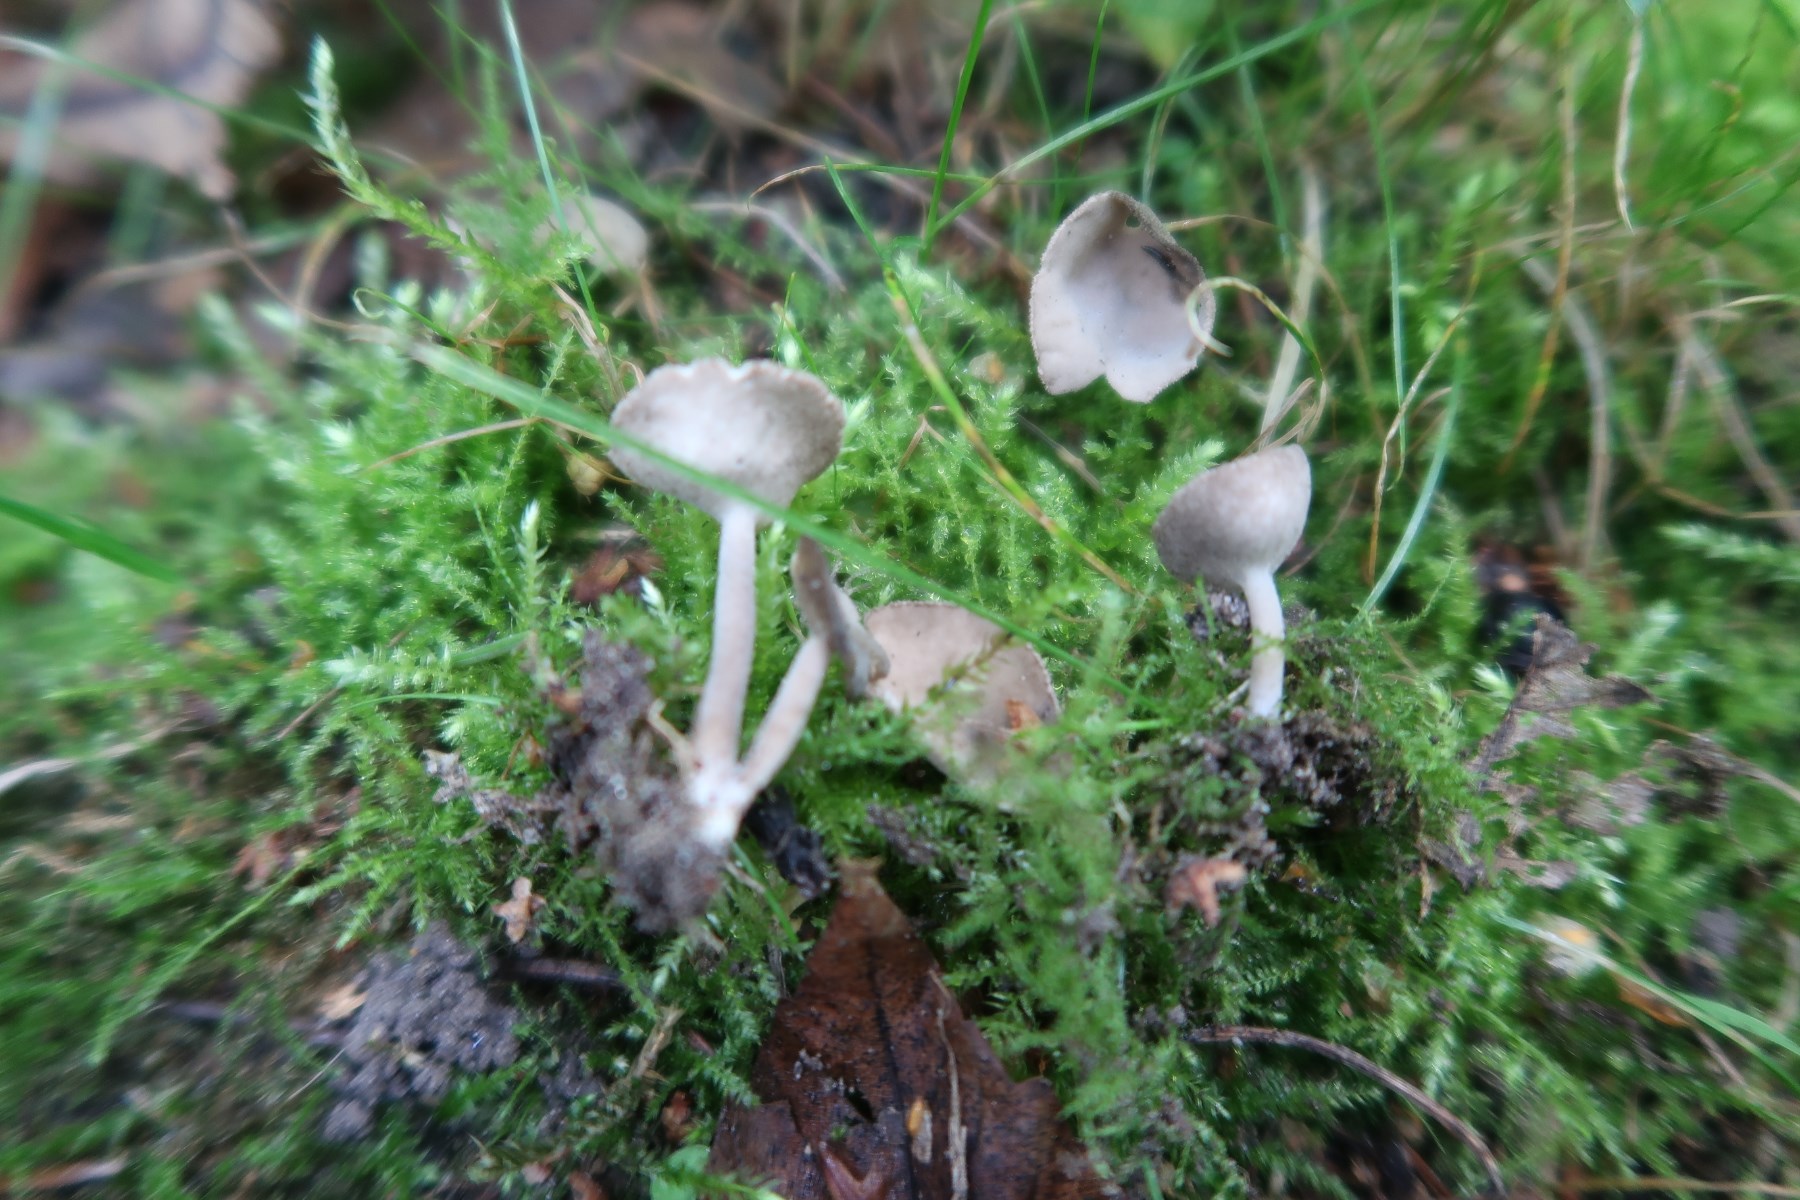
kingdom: Fungi
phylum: Ascomycota
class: Pezizomycetes
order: Pezizales
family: Helvellaceae
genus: Helvella
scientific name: Helvella fibrosa
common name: dunstokket foldhat
